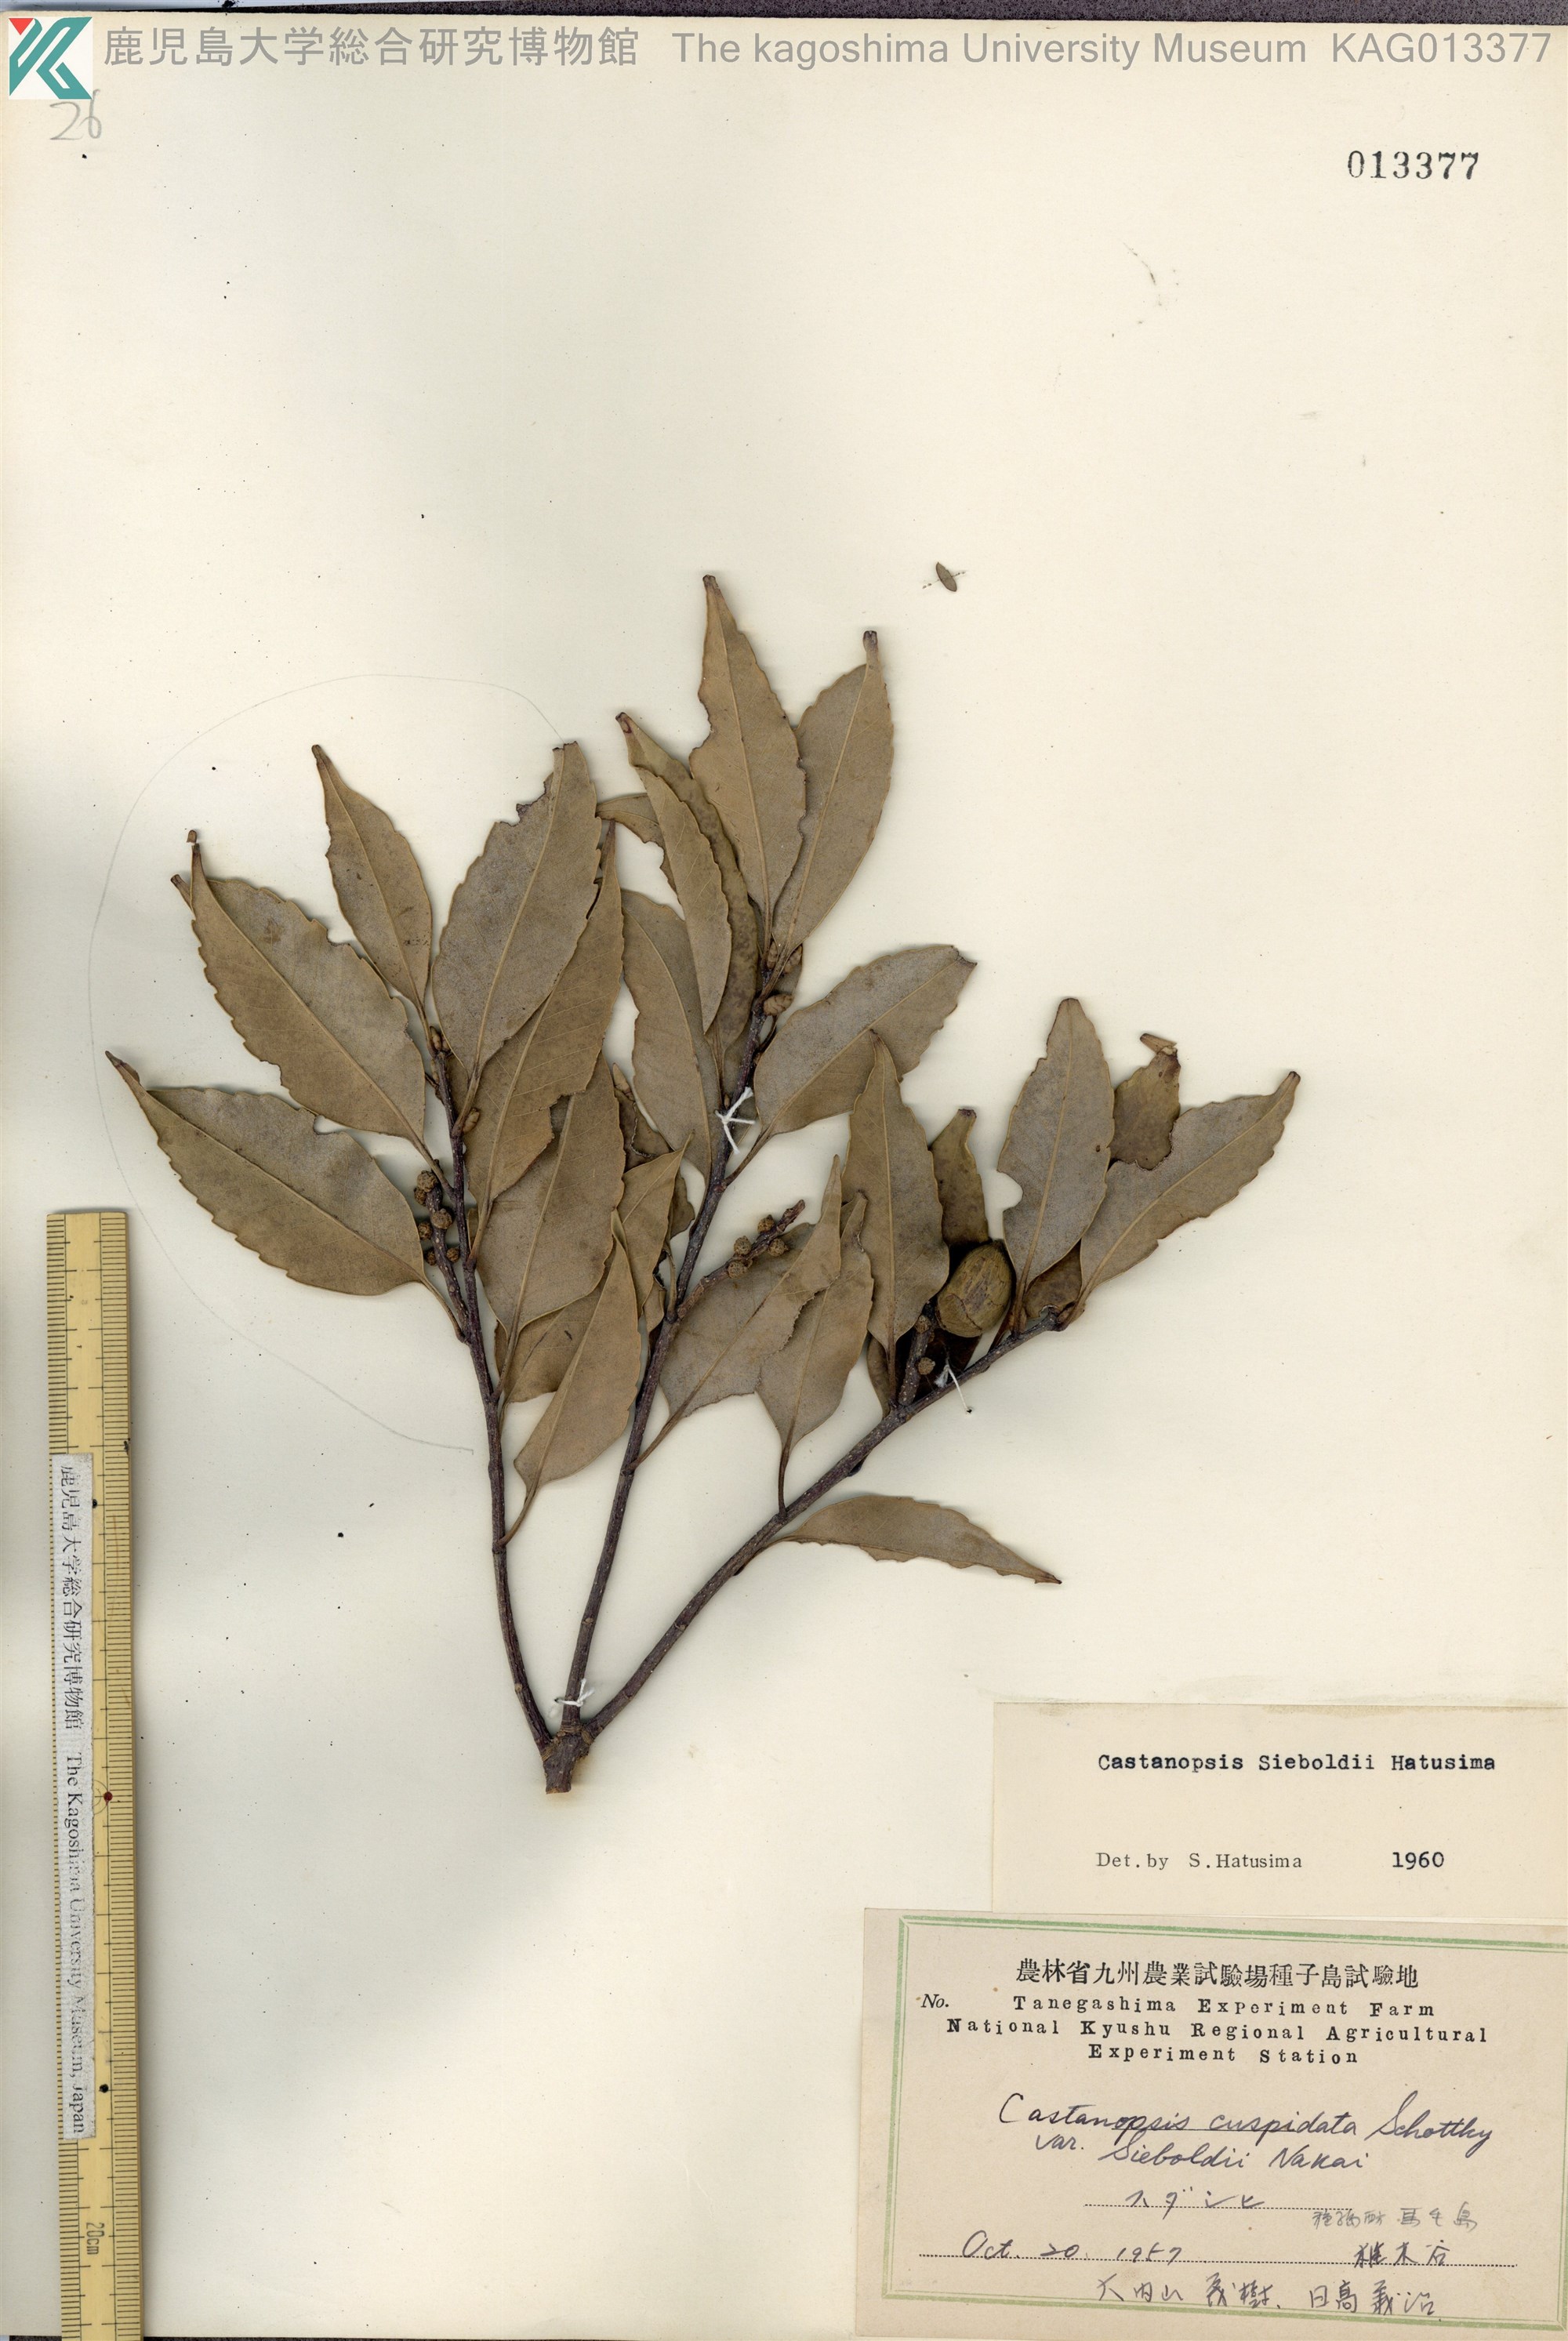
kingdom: Plantae
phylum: Tracheophyta
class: Magnoliopsida
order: Fagales
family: Fagaceae
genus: Castanopsis
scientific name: Castanopsis sieboldii
